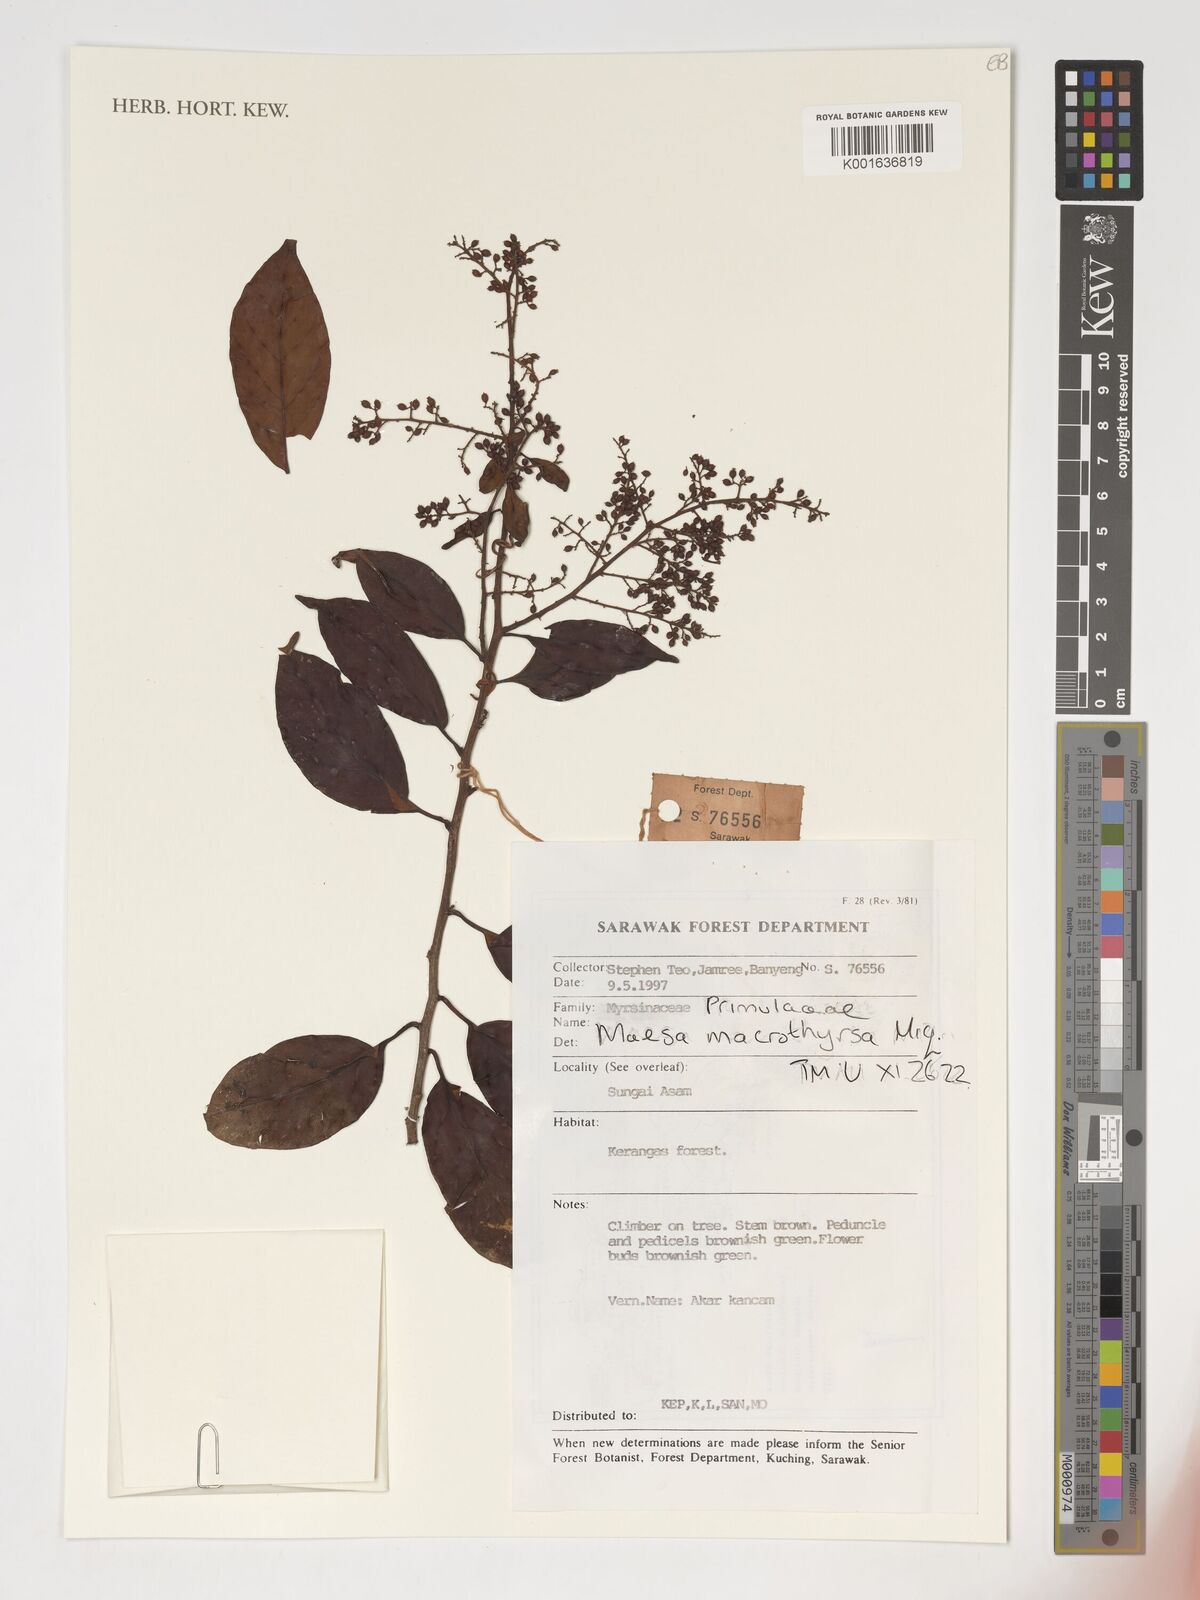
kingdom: Plantae
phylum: Tracheophyta
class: Magnoliopsida
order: Ericales
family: Primulaceae
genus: Maesa
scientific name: Maesa macrothyrsa
